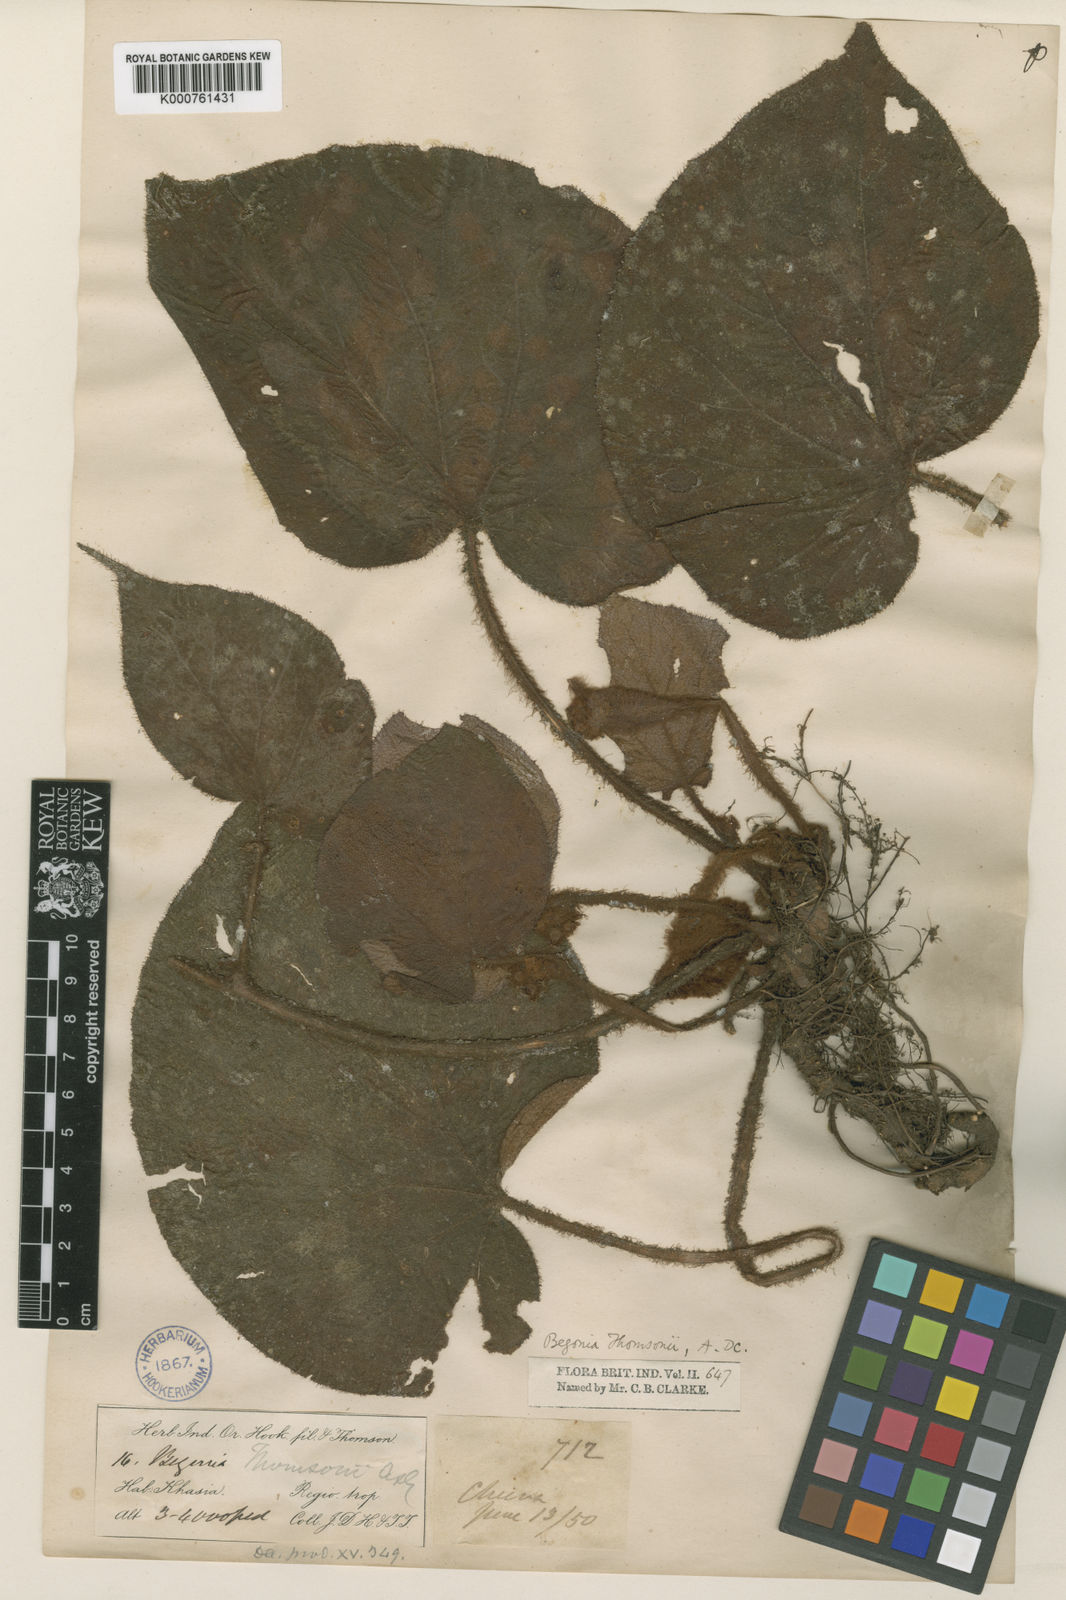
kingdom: Plantae
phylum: Tracheophyta
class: Magnoliopsida
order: Cucurbitales
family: Begoniaceae
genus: Begonia
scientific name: Begonia thomsonii
